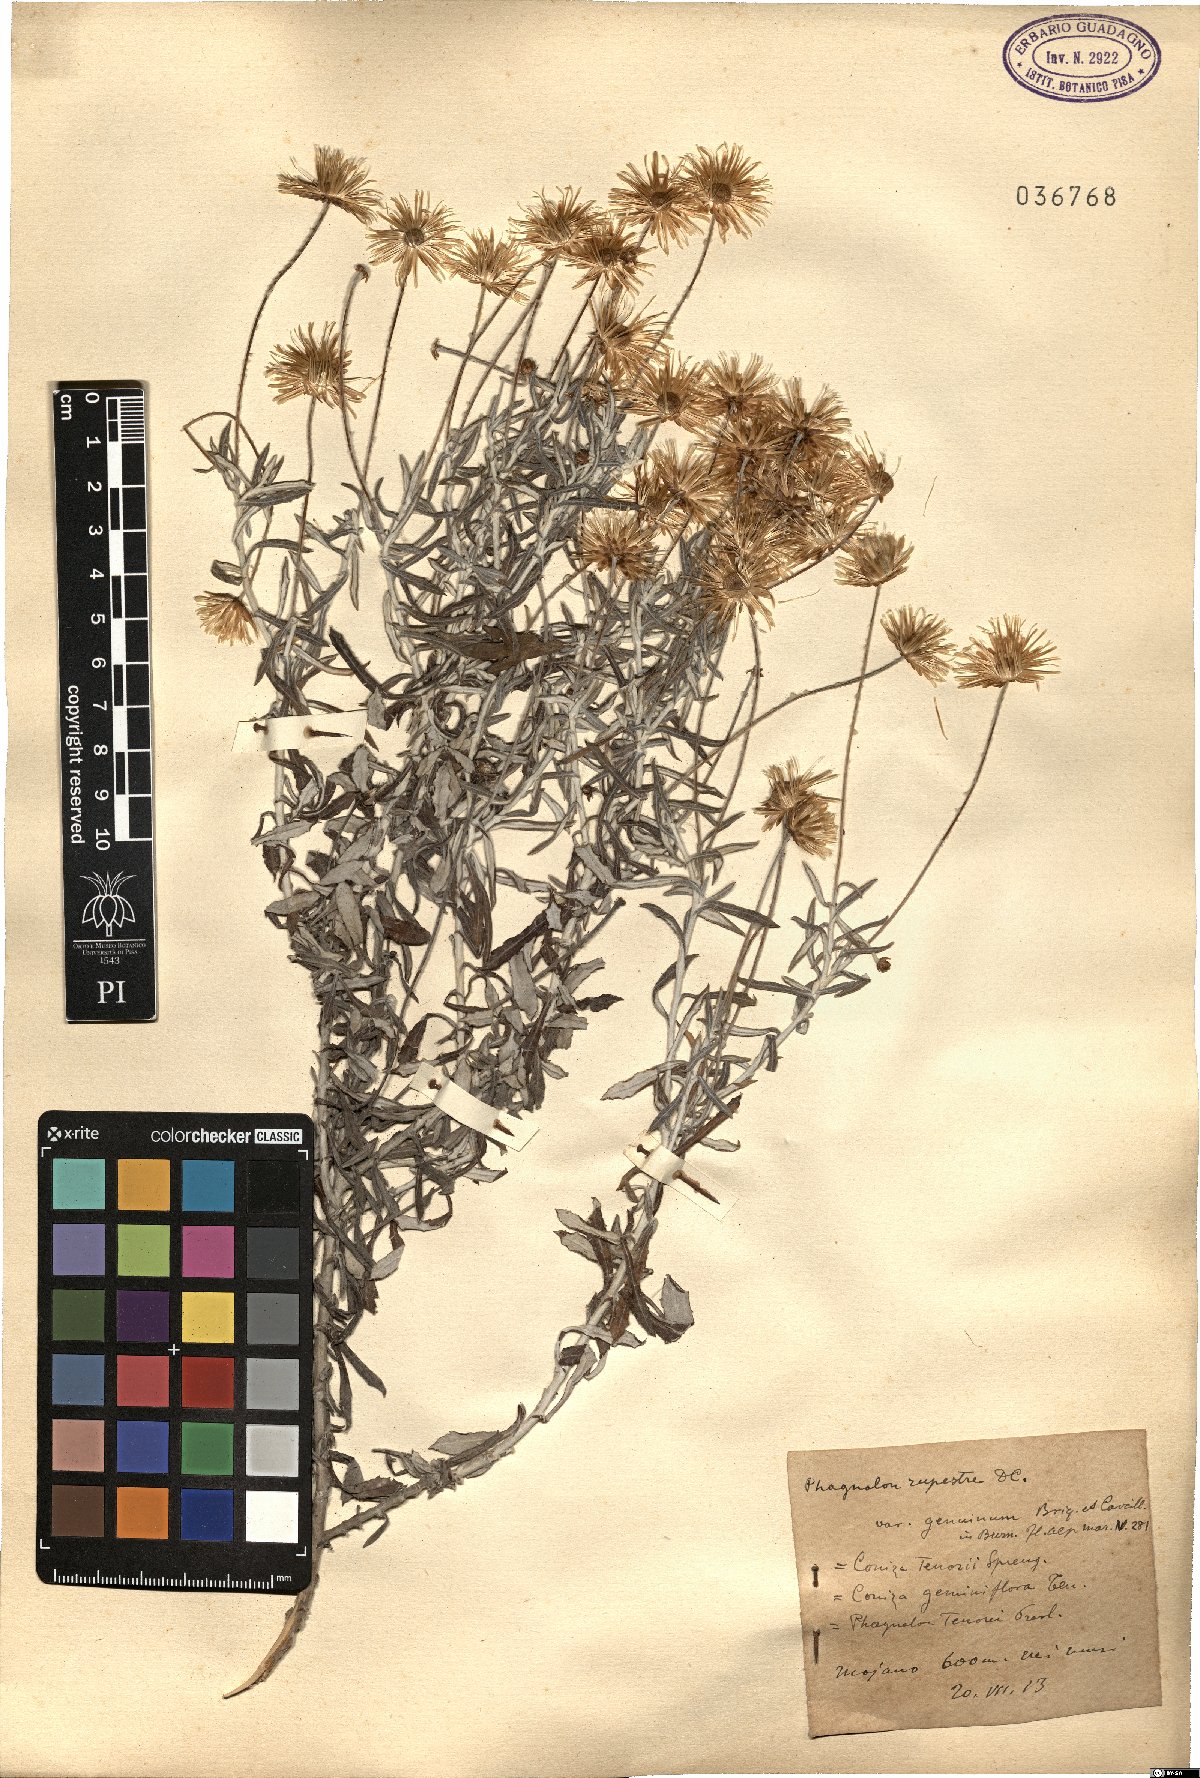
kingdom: Plantae
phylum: Tracheophyta
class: Magnoliopsida
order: Asterales
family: Asteraceae
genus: Phagnalon
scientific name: Phagnalon rupestre
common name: Rock phagnalon
